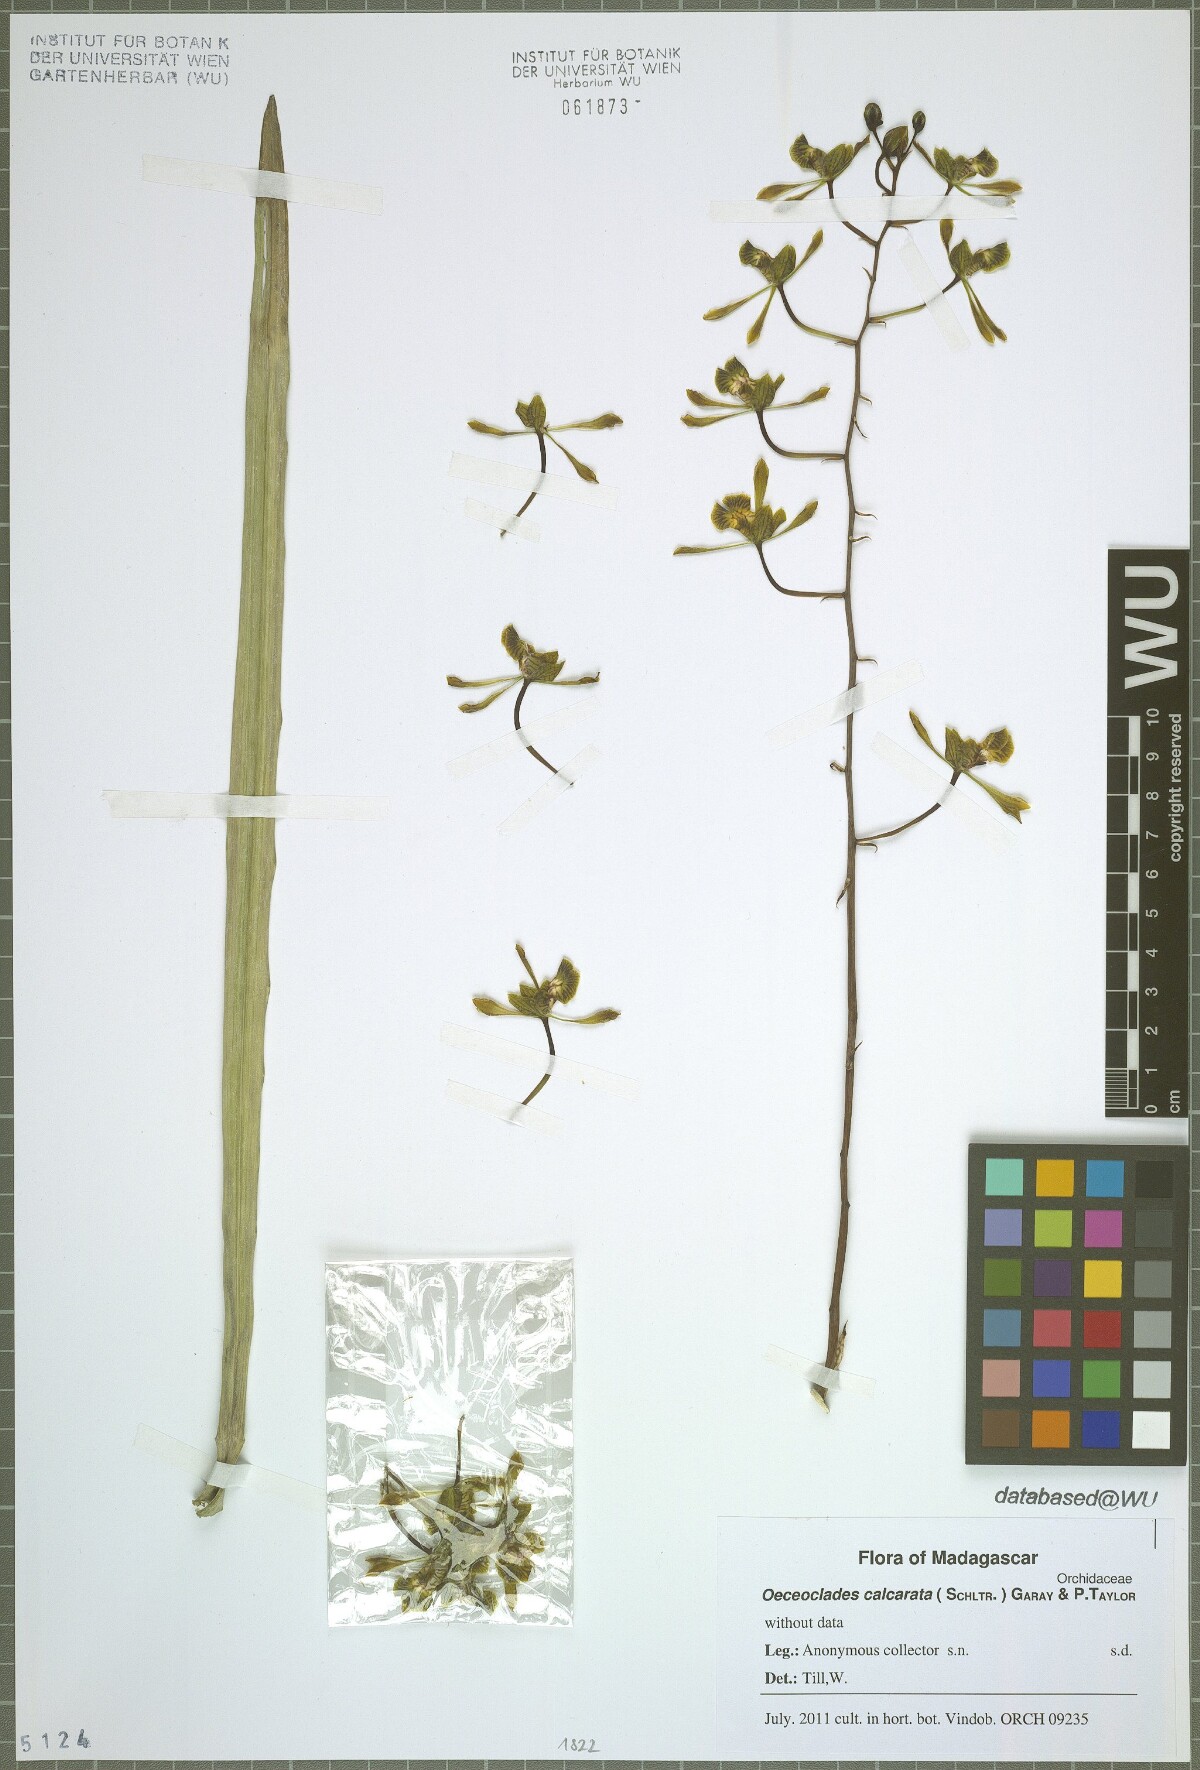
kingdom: Plantae
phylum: Tracheophyta
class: Liliopsida
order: Asparagales
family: Orchidaceae
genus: Eulophia
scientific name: Eulophia calcarata
